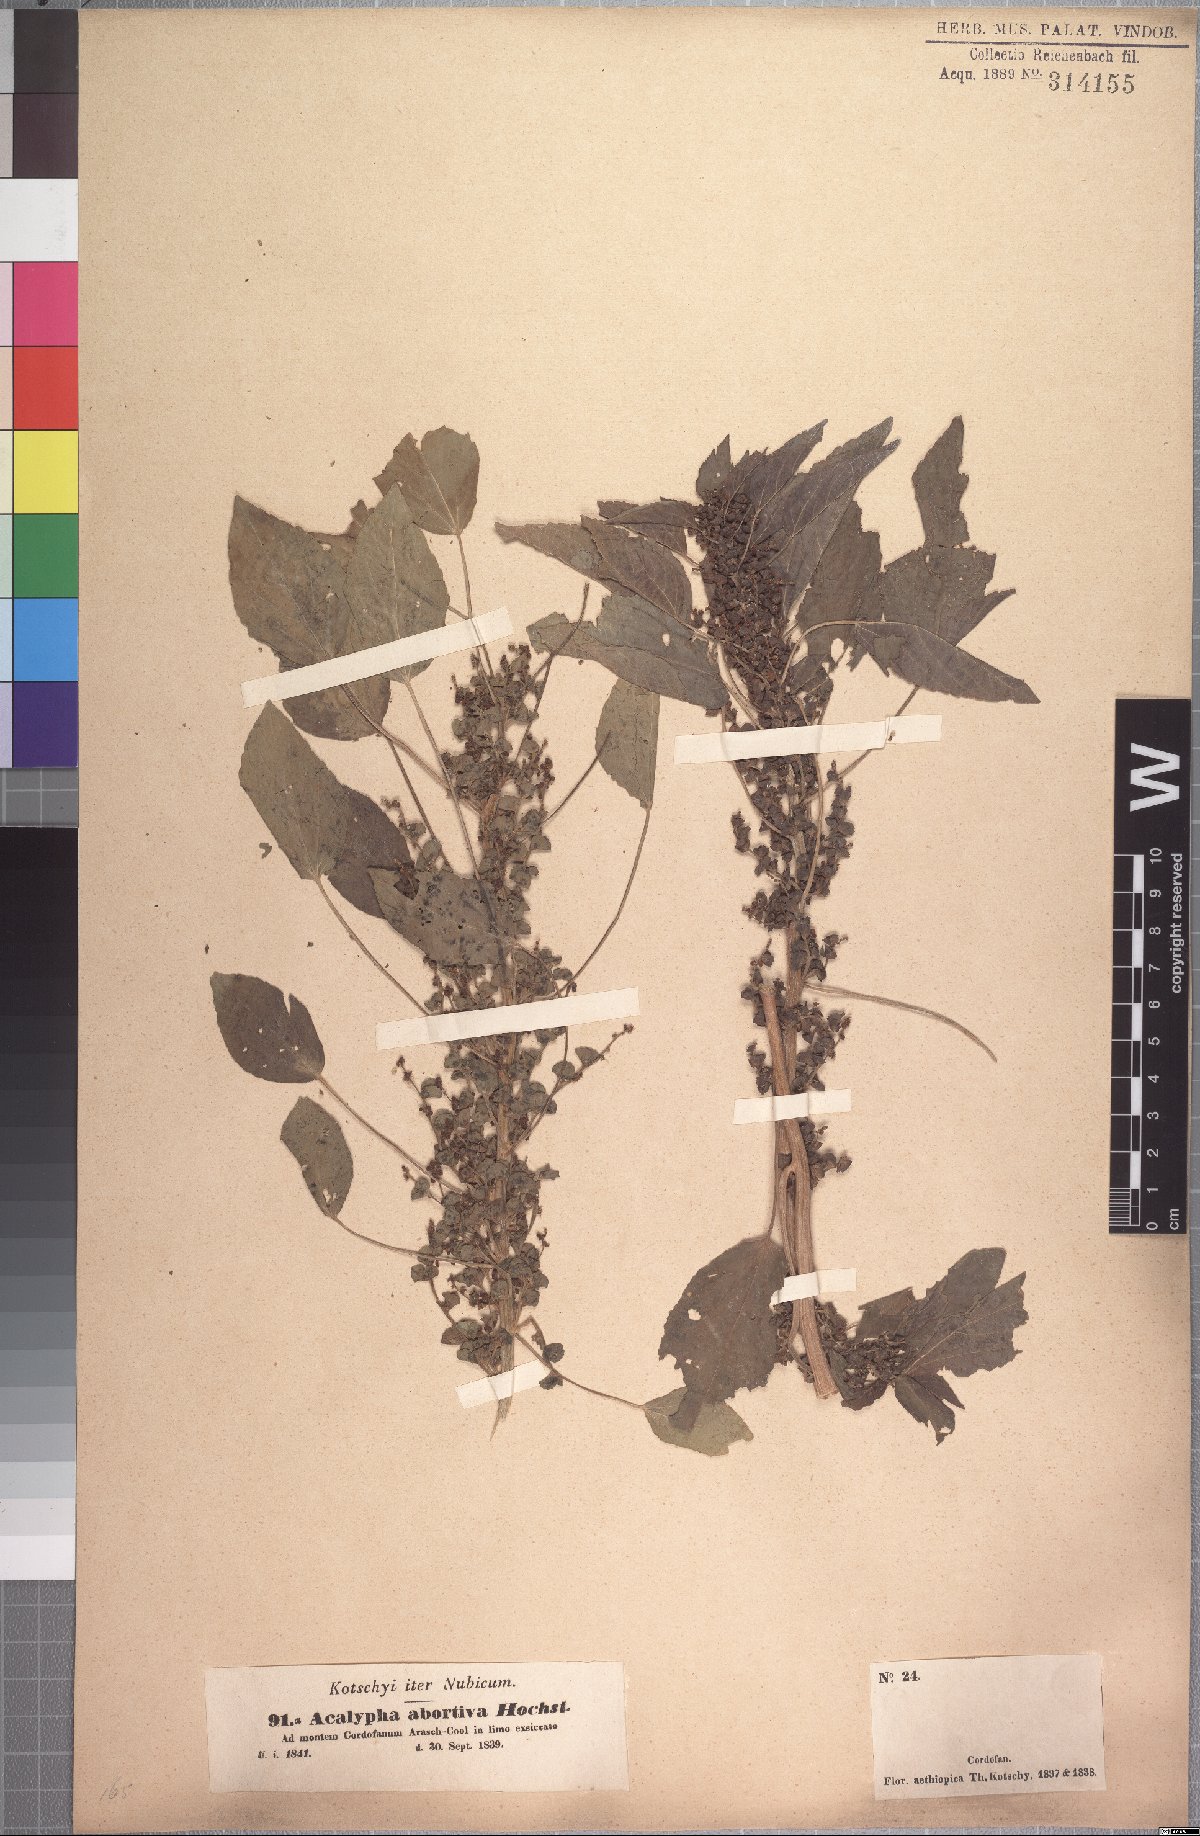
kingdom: Plantae
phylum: Tracheophyta
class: Magnoliopsida
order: Malpighiales
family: Euphorbiaceae
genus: Acalypha
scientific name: Acalypha crenata
